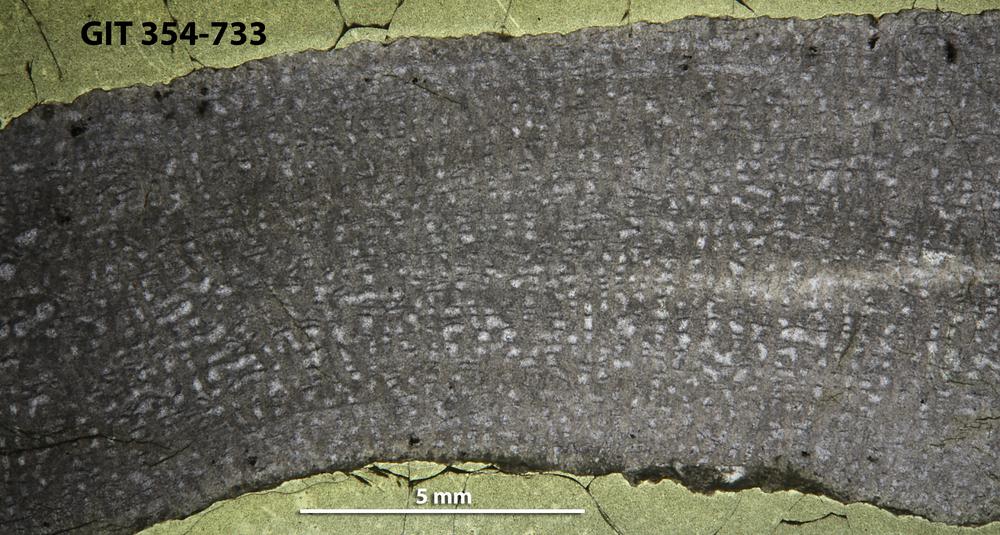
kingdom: Animalia
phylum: Porifera
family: Syringostromellidae
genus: Syringostromella
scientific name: Syringostromella
